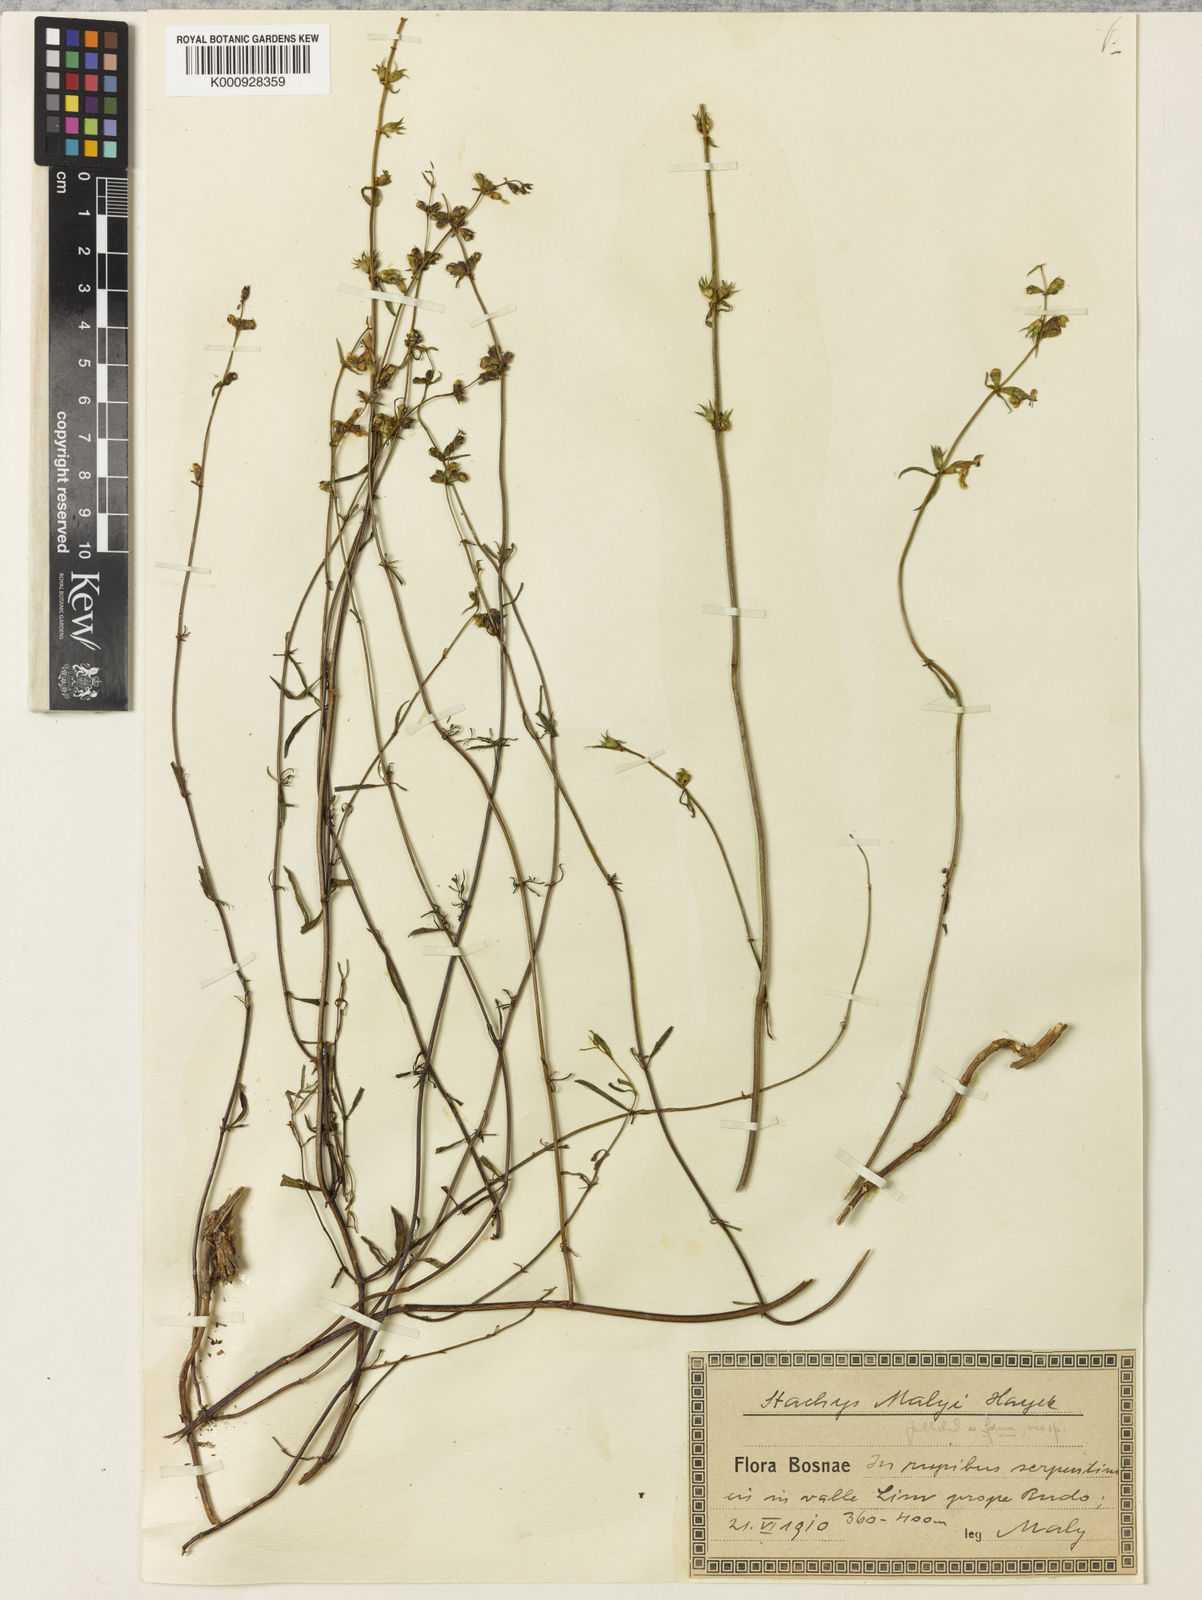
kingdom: Plantae
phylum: Tracheophyta
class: Magnoliopsida
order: Lamiales
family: Lamiaceae
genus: Stachys
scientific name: Stachys recta
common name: Perennial yellow-woundwort
